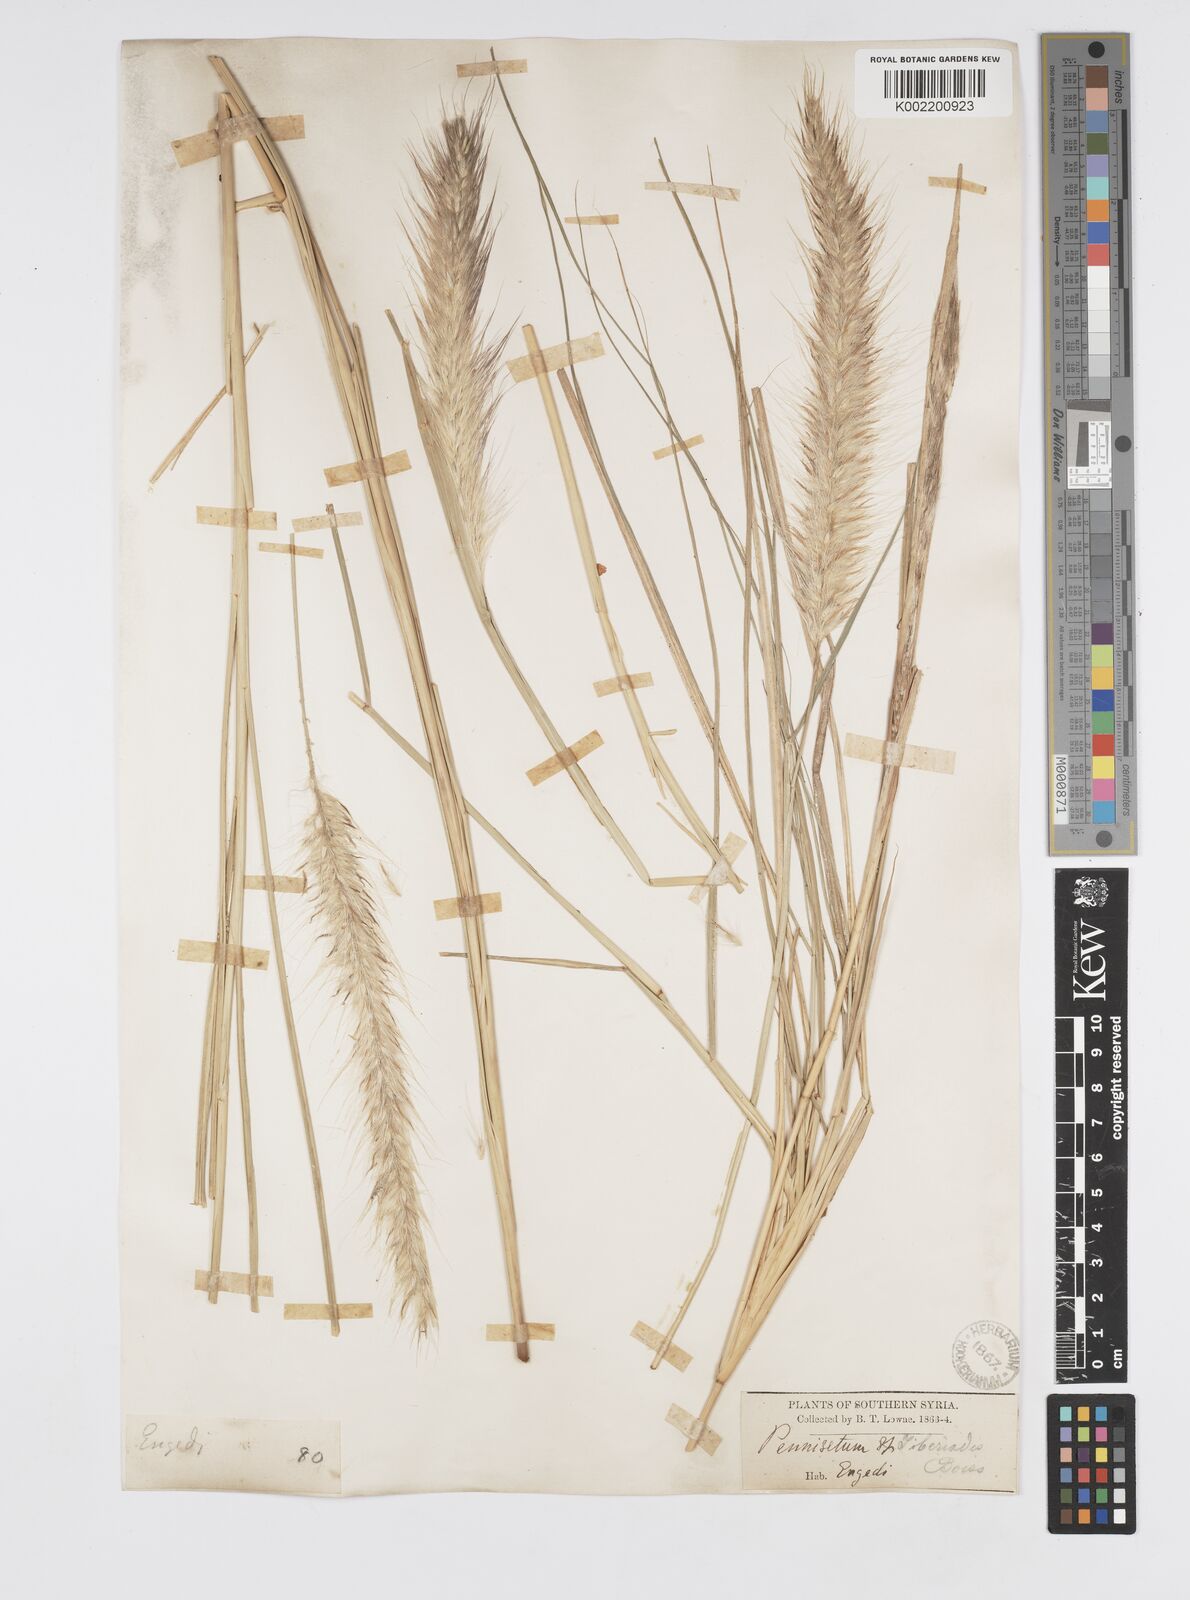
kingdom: Plantae
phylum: Tracheophyta
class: Liliopsida
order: Poales
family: Poaceae
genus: Cenchrus
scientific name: Cenchrus setaceus
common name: Crimson fountaingrass
